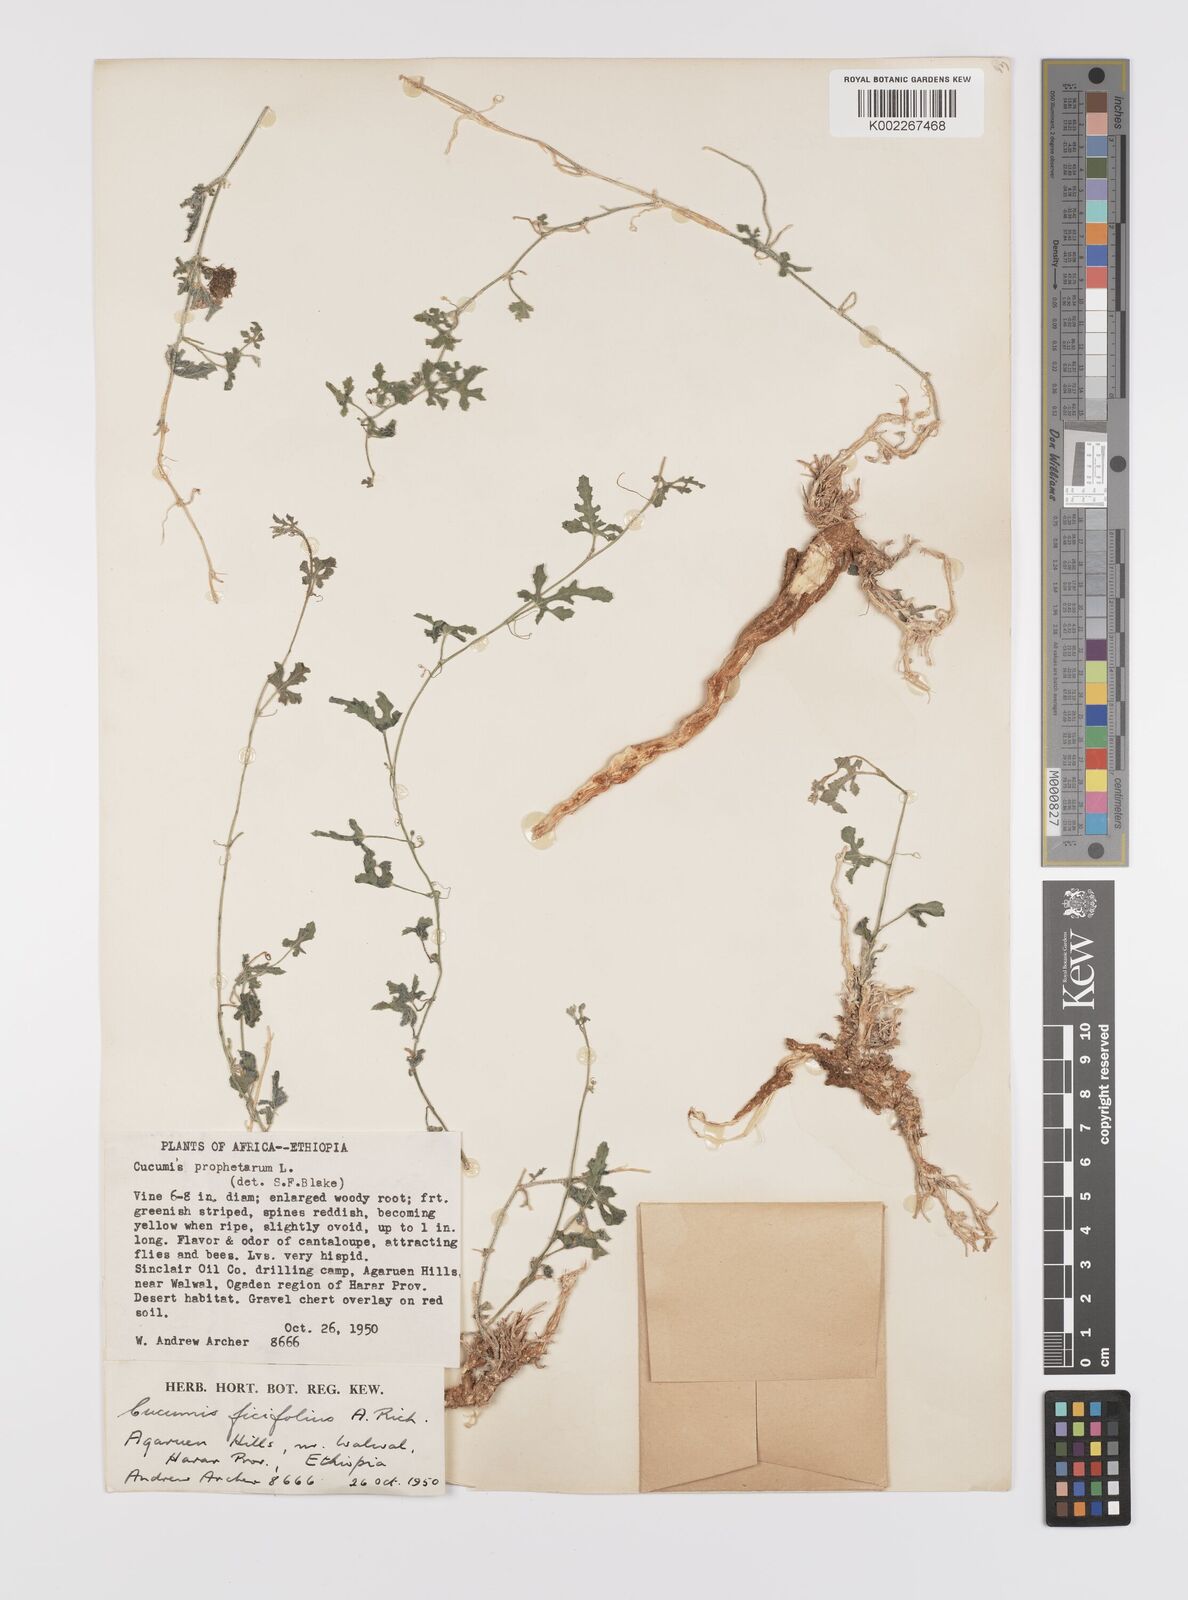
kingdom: Plantae
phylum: Tracheophyta
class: Magnoliopsida
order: Cucurbitales
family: Cucurbitaceae
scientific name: Cucurbitaceae
